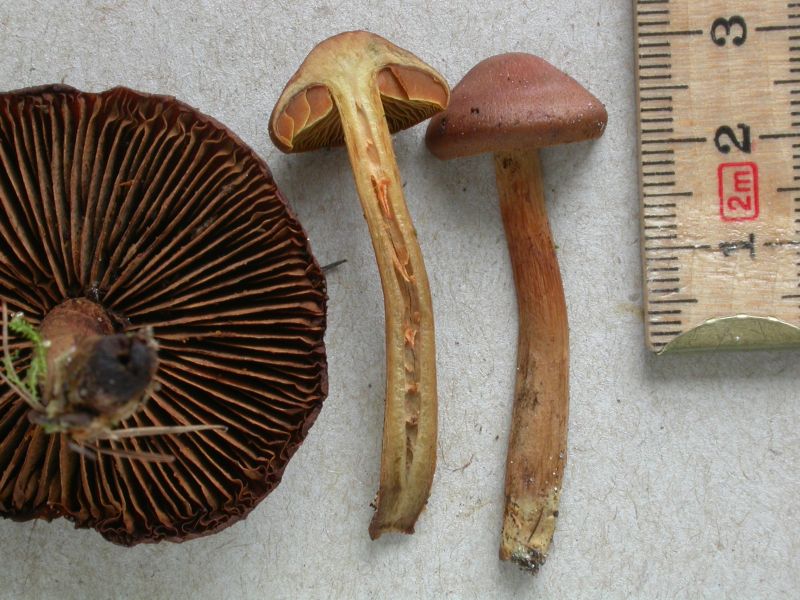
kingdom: Fungi
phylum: Basidiomycota
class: Agaricomycetes
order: Agaricales
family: Cortinariaceae
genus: Cortinarius
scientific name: Cortinarius cinnamomeus
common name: kanel-slørhat
